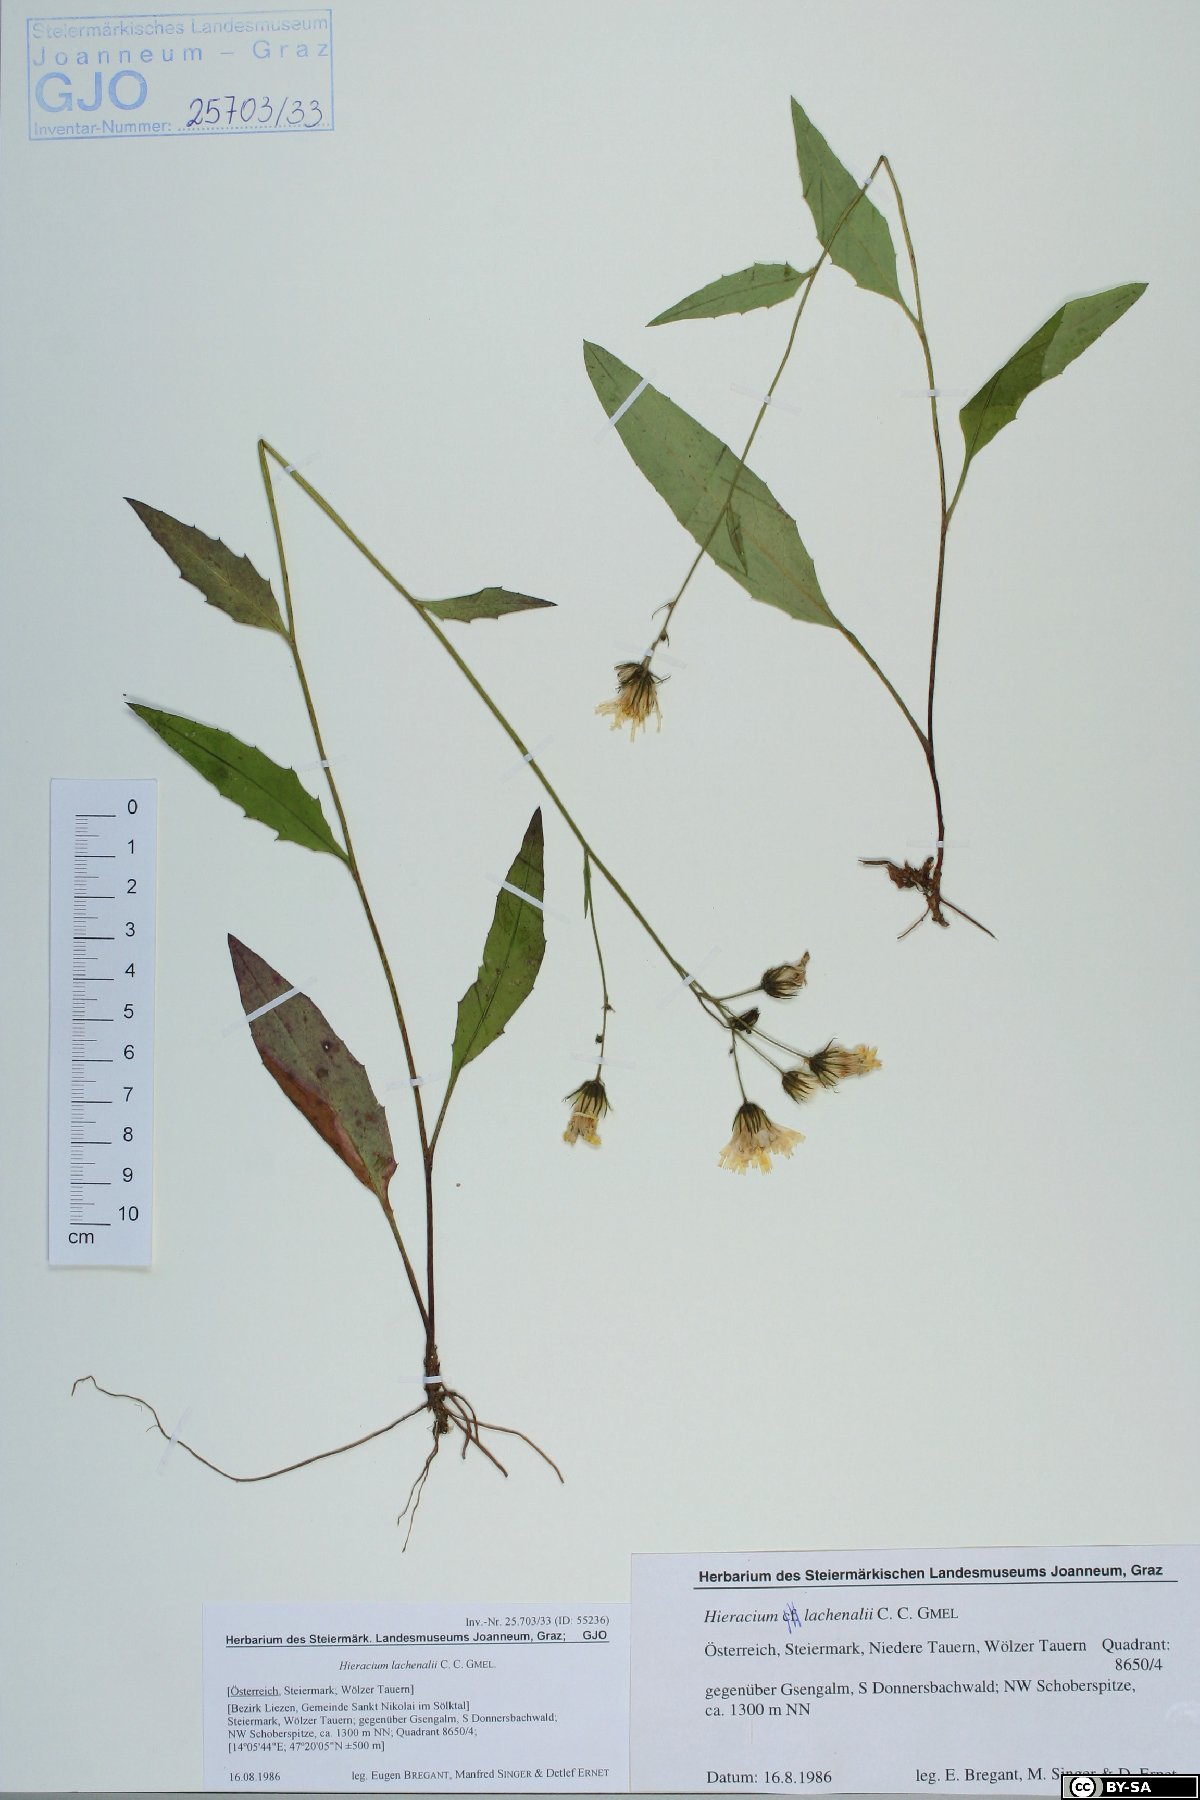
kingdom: Plantae
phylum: Tracheophyta
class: Magnoliopsida
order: Asterales
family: Asteraceae
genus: Hieracium
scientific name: Hieracium lachenalii
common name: Common hawkweed
